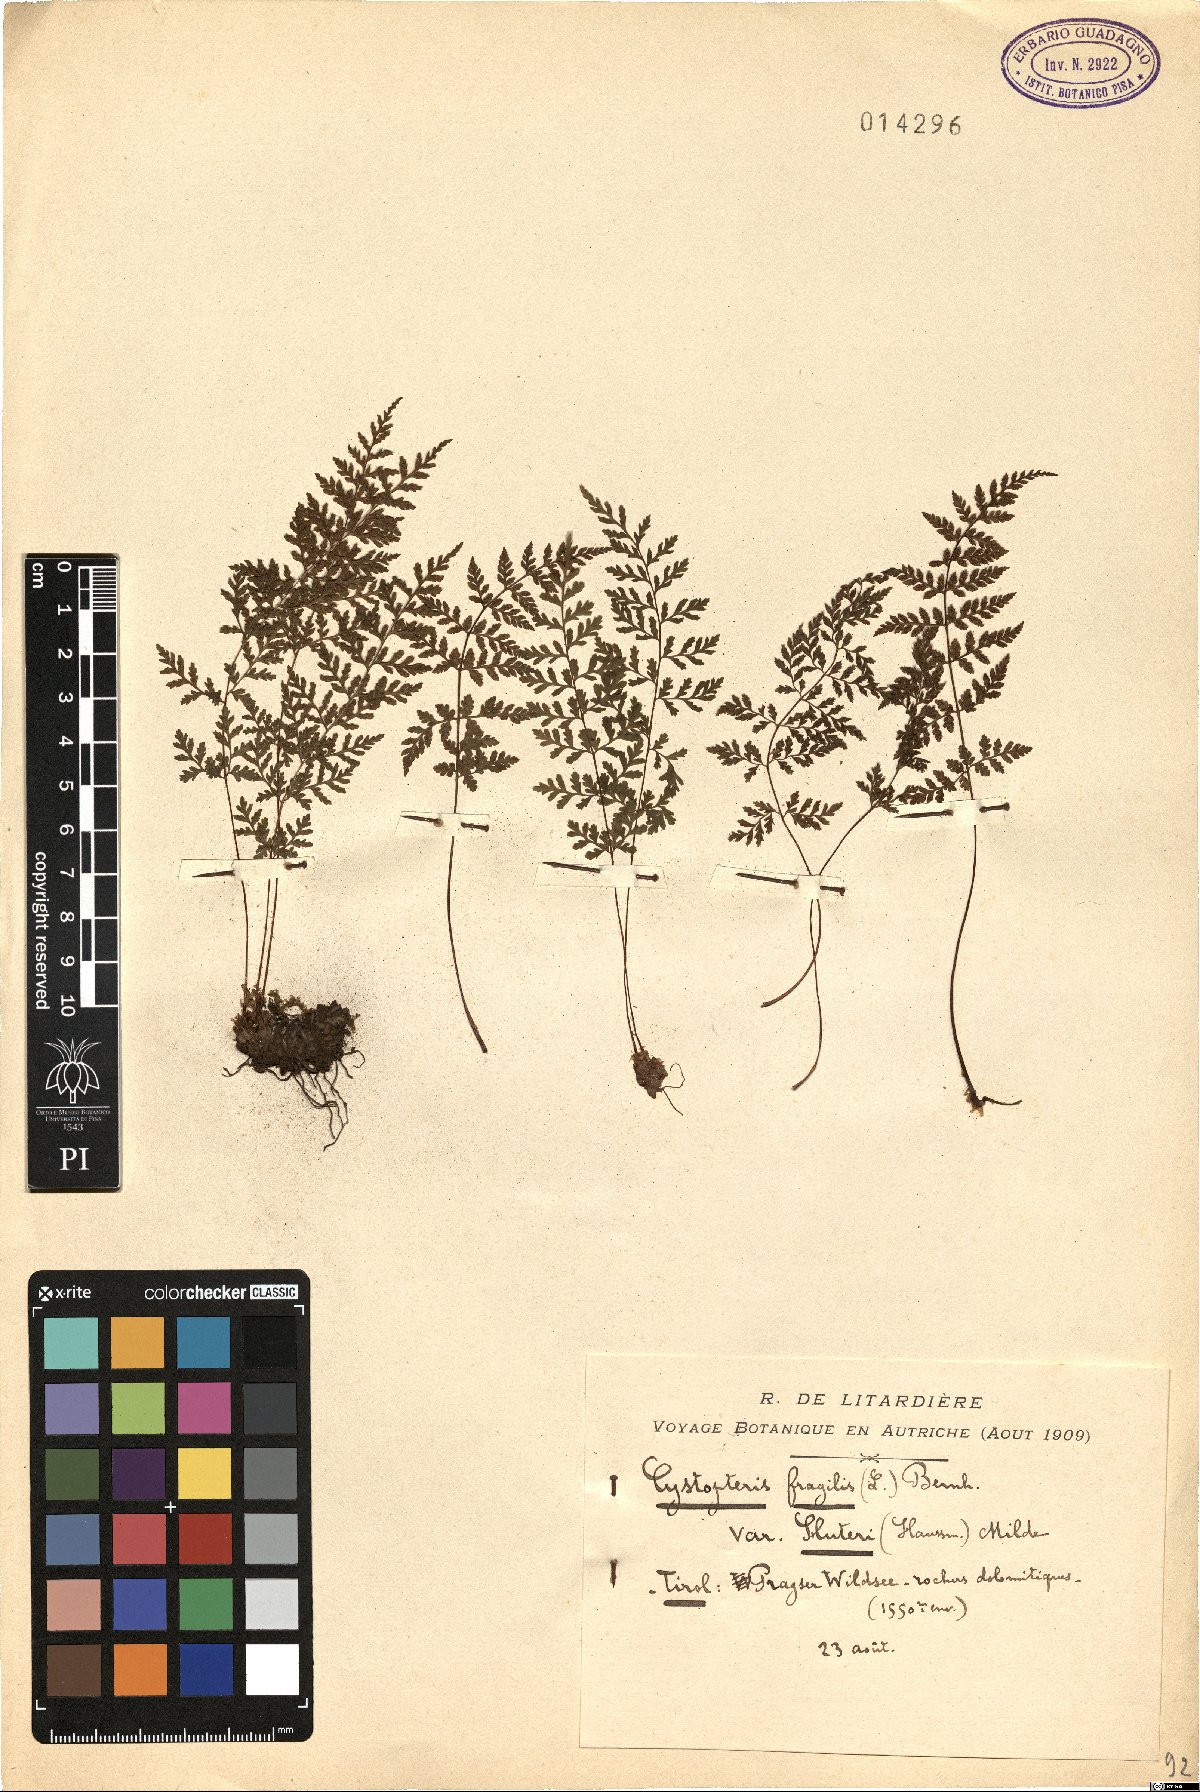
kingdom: Plantae
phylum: Tracheophyta
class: Polypodiopsida
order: Polypodiales
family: Cystopteridaceae
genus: Cystopteris
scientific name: Cystopteris fragilis
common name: Brittle bladder fern
